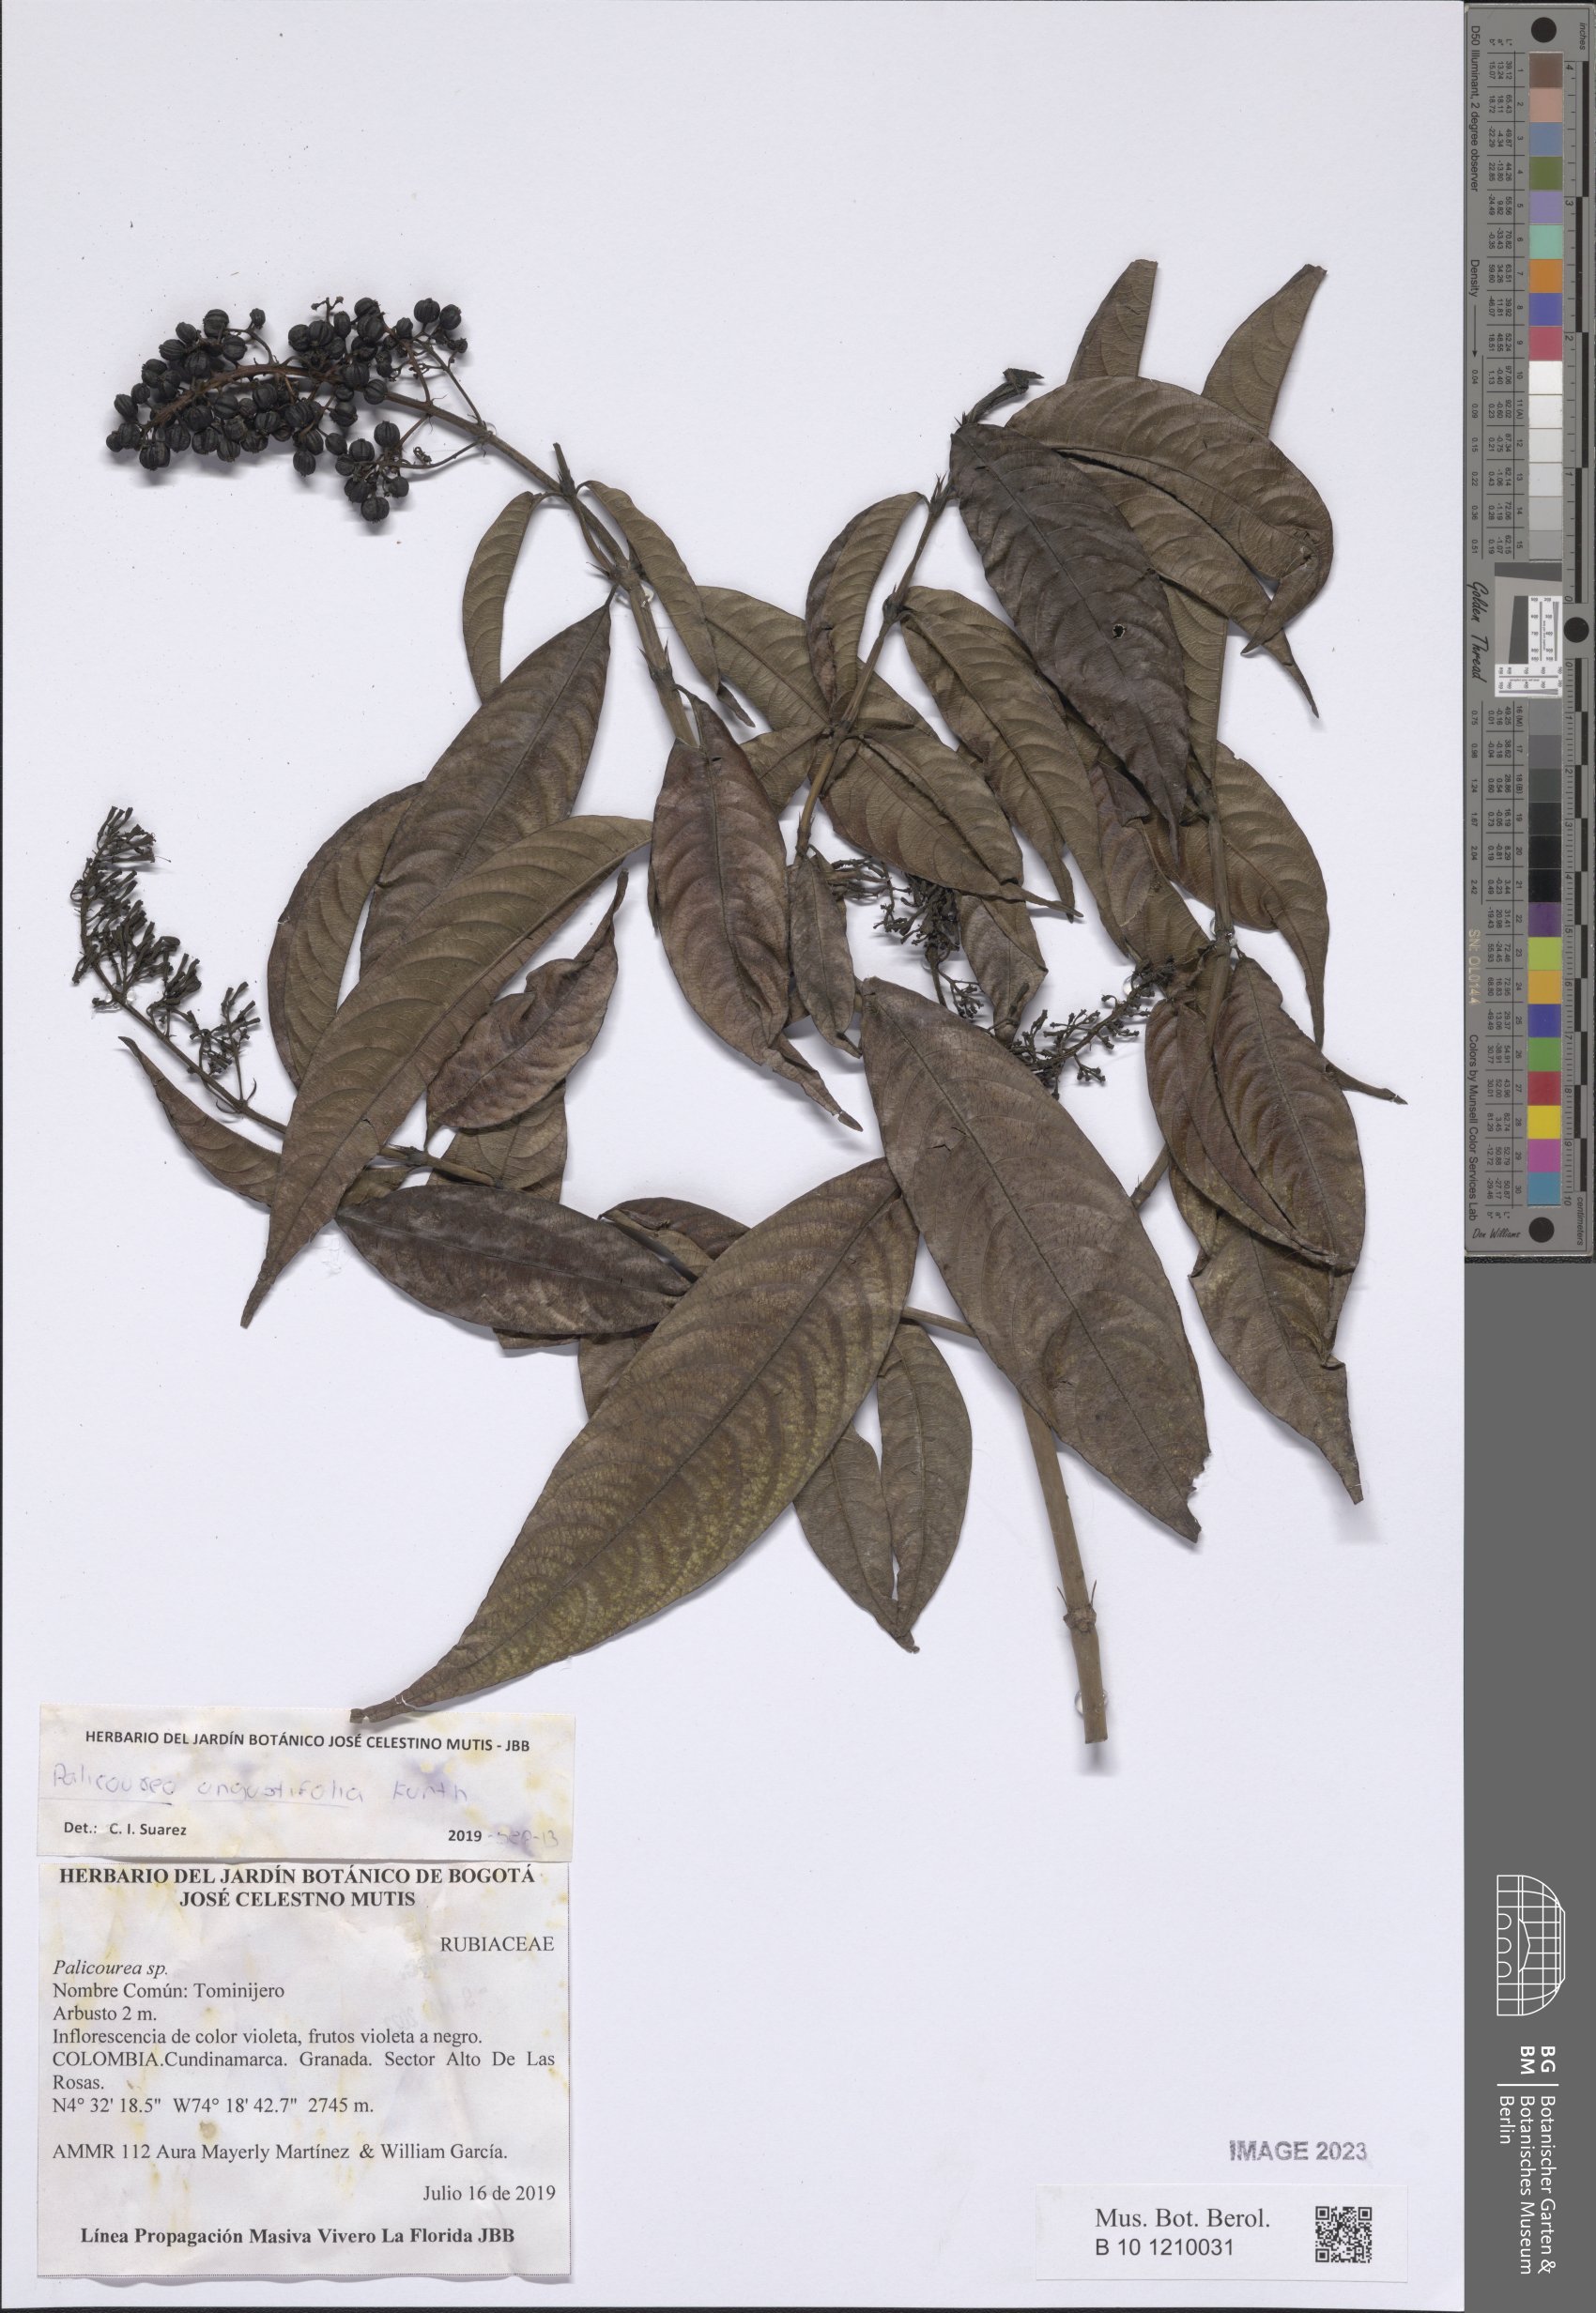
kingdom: Plantae
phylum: Tracheophyta
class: Magnoliopsida
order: Gentianales
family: Rubiaceae
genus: Palicourea
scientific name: Palicourea angustifolia
